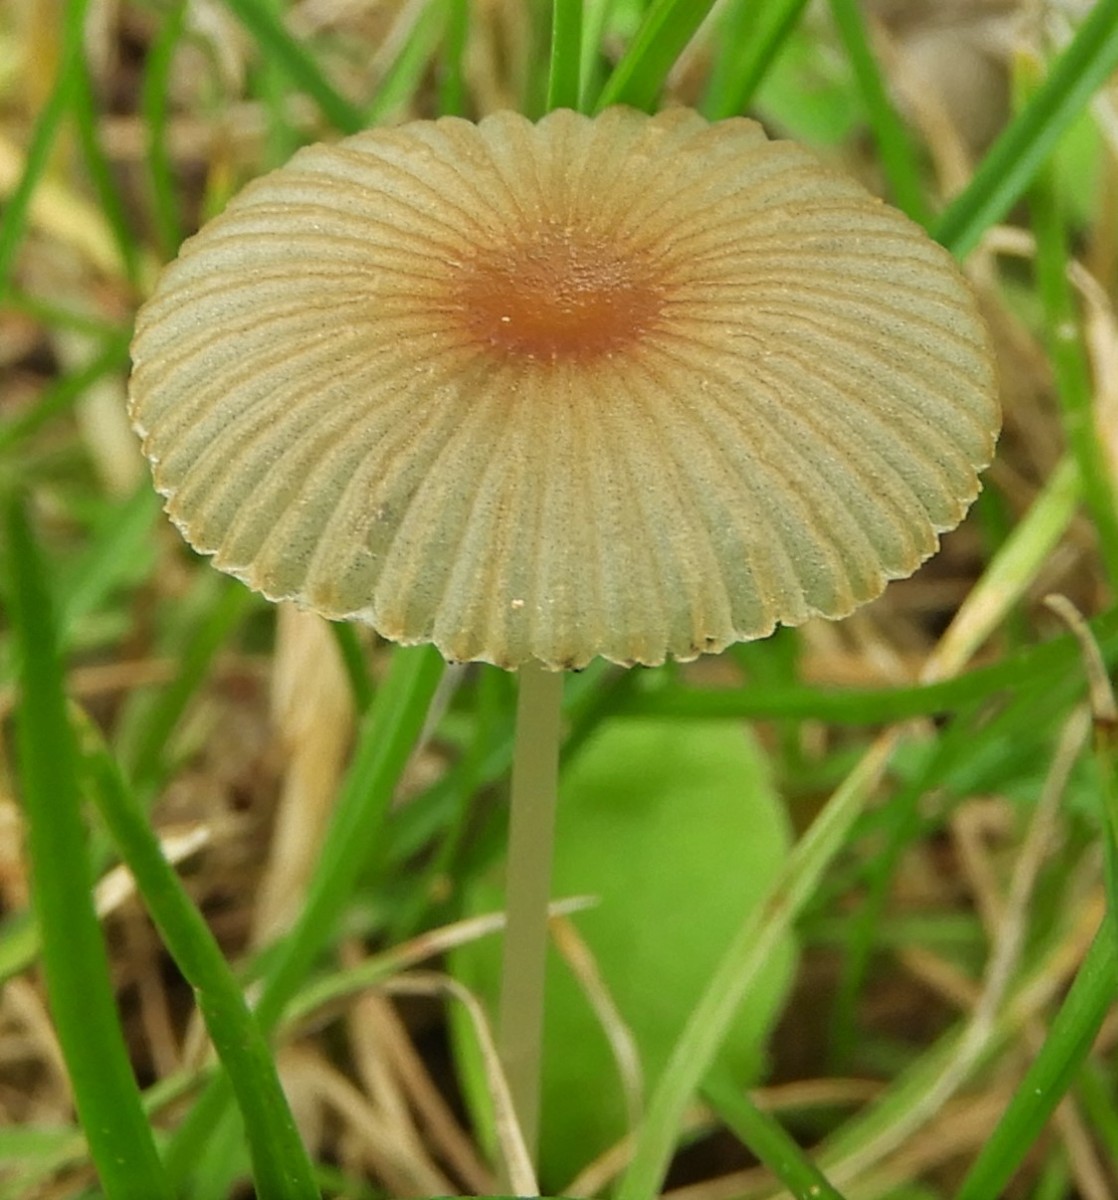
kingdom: Fungi
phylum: Basidiomycota
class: Agaricomycetes
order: Agaricales
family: Psathyrellaceae
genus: Parasola
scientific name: Parasola
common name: hjulhat
